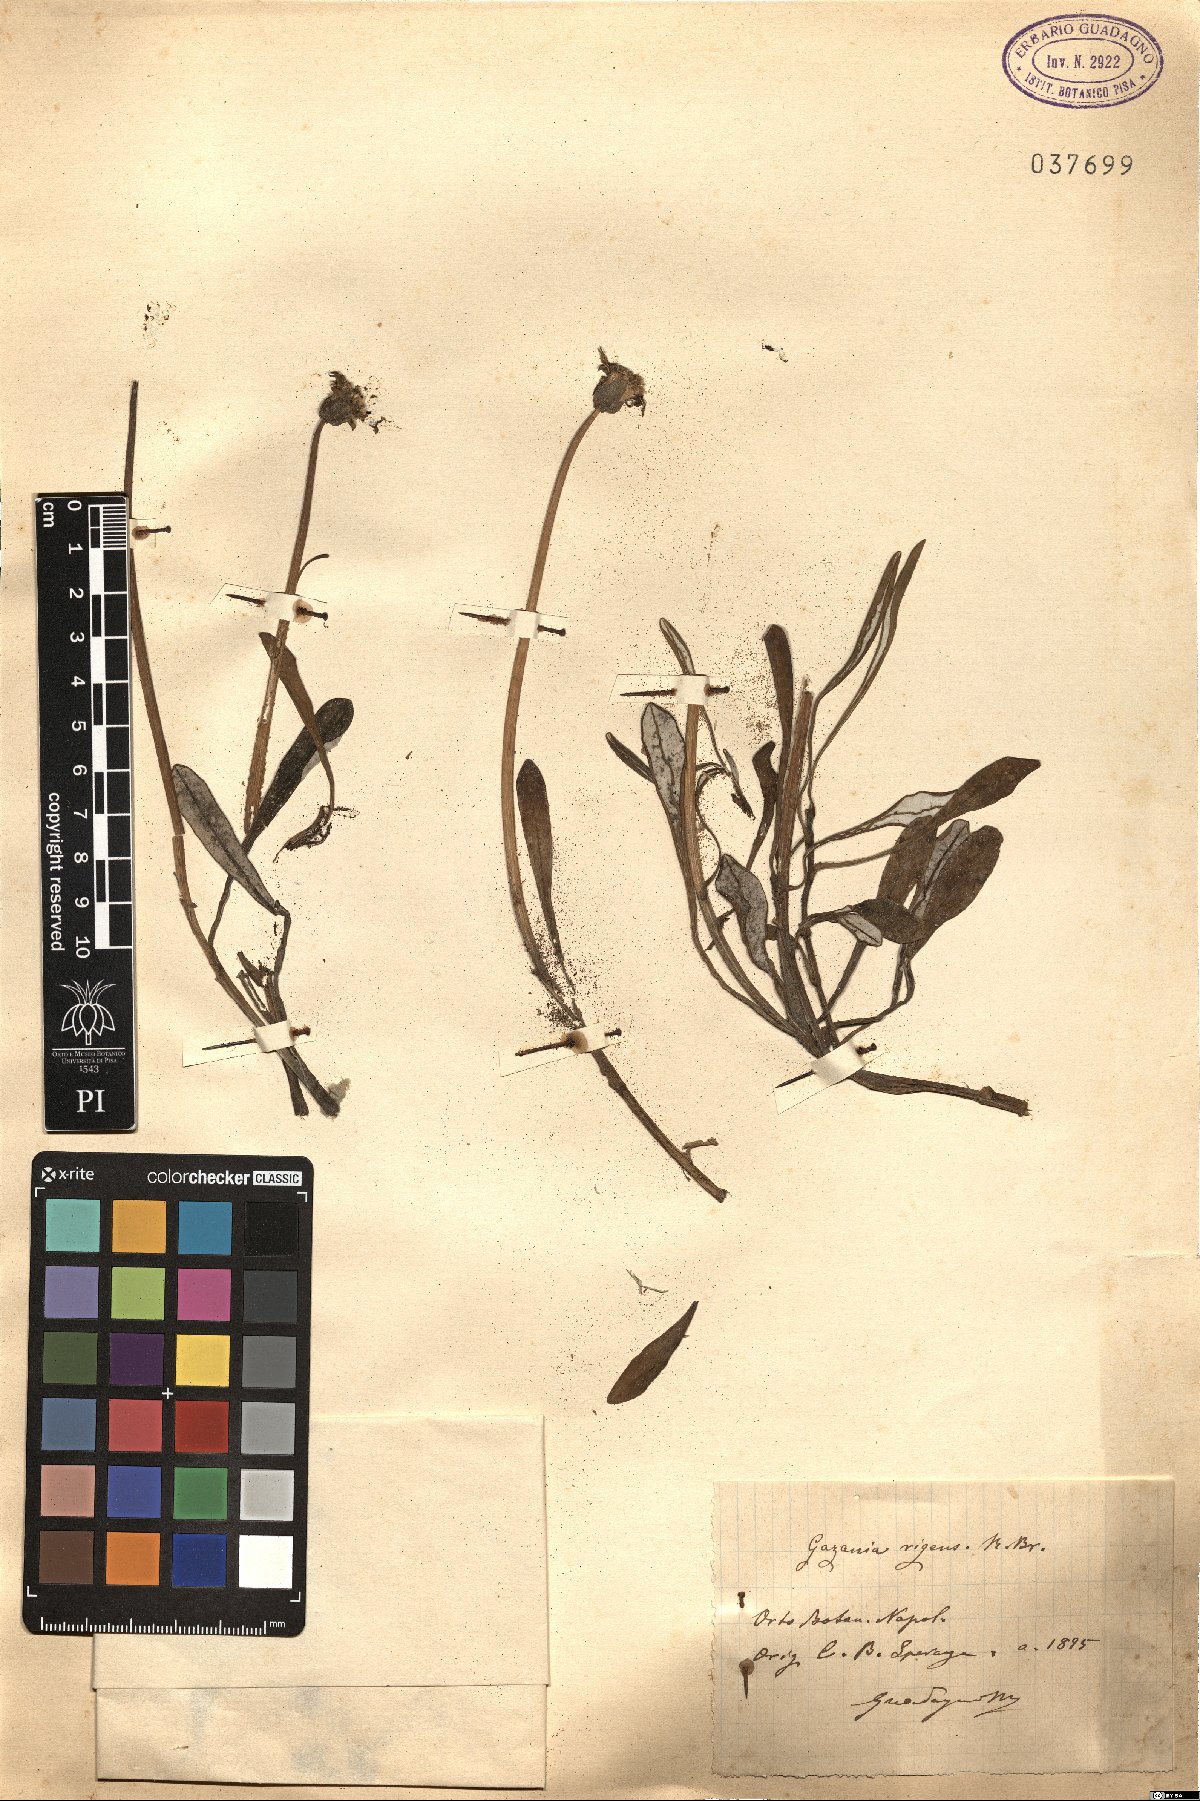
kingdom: Plantae
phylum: Tracheophyta
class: Magnoliopsida
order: Asterales
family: Asteraceae
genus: Gazania
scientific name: Gazania rigens
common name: Treasureflower
